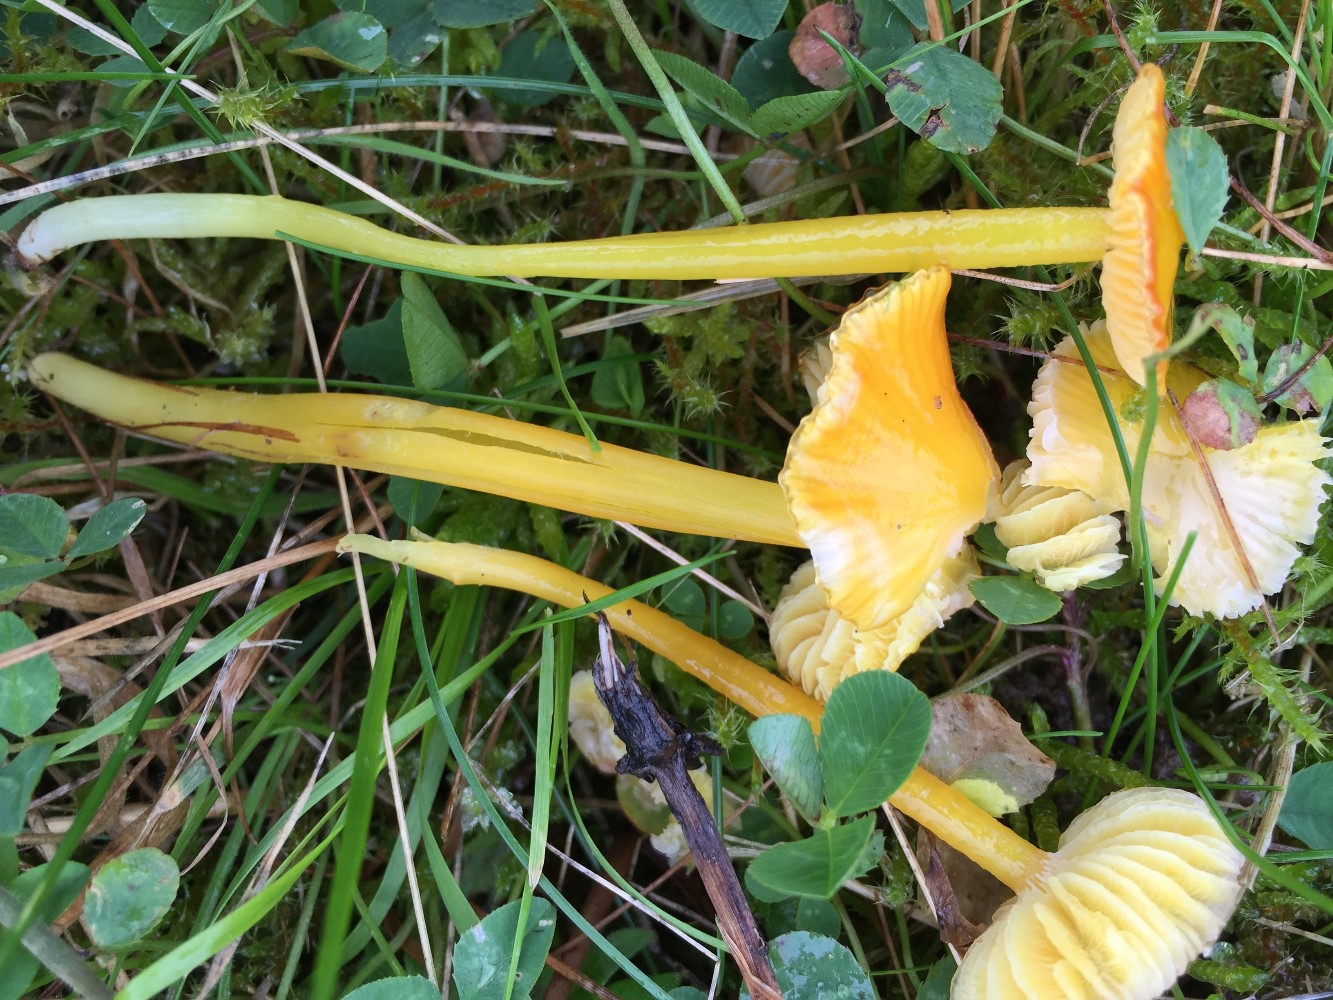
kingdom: Fungi
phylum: Basidiomycota
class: Agaricomycetes
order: Agaricales
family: Hygrophoraceae
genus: Hygrocybe
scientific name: Hygrocybe glutinipes
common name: slimstokket vokshat
